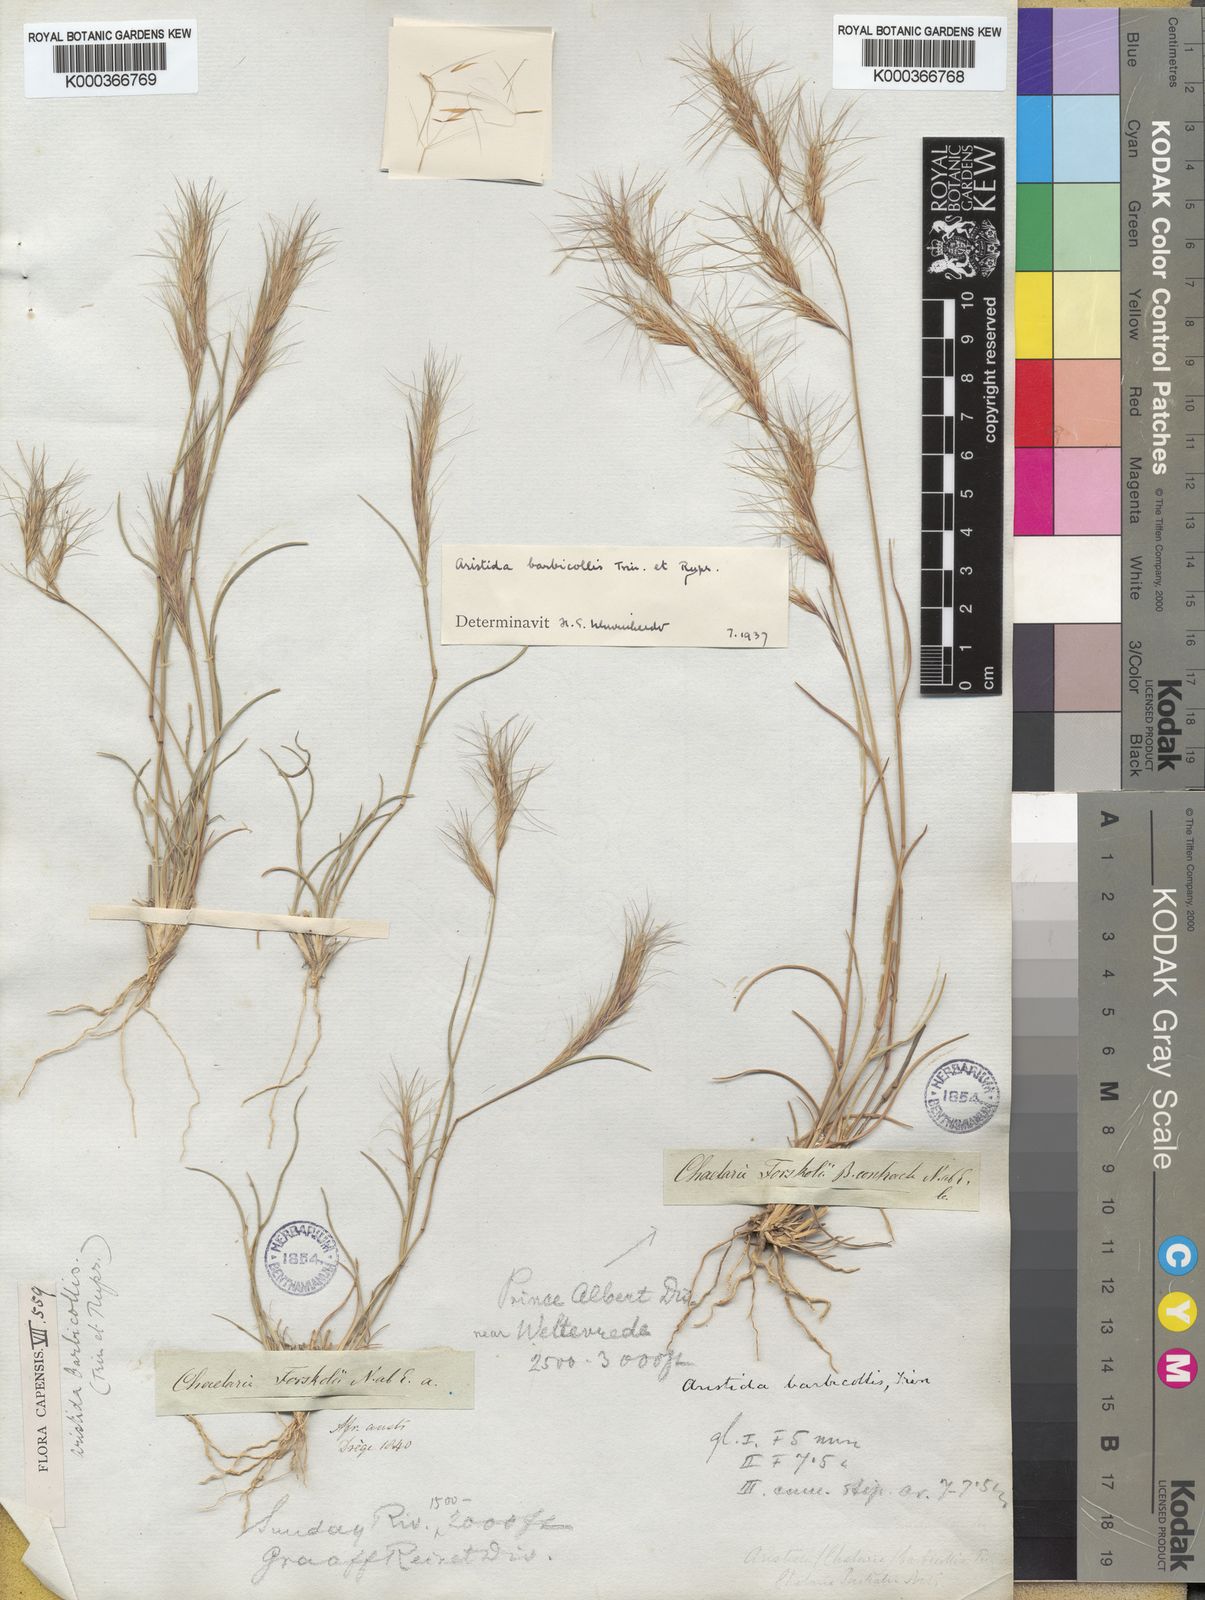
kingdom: Plantae
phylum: Tracheophyta
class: Liliopsida
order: Poales
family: Poaceae
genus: Aristida
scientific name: Aristida barbicollis
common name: Spreading prickle grass
